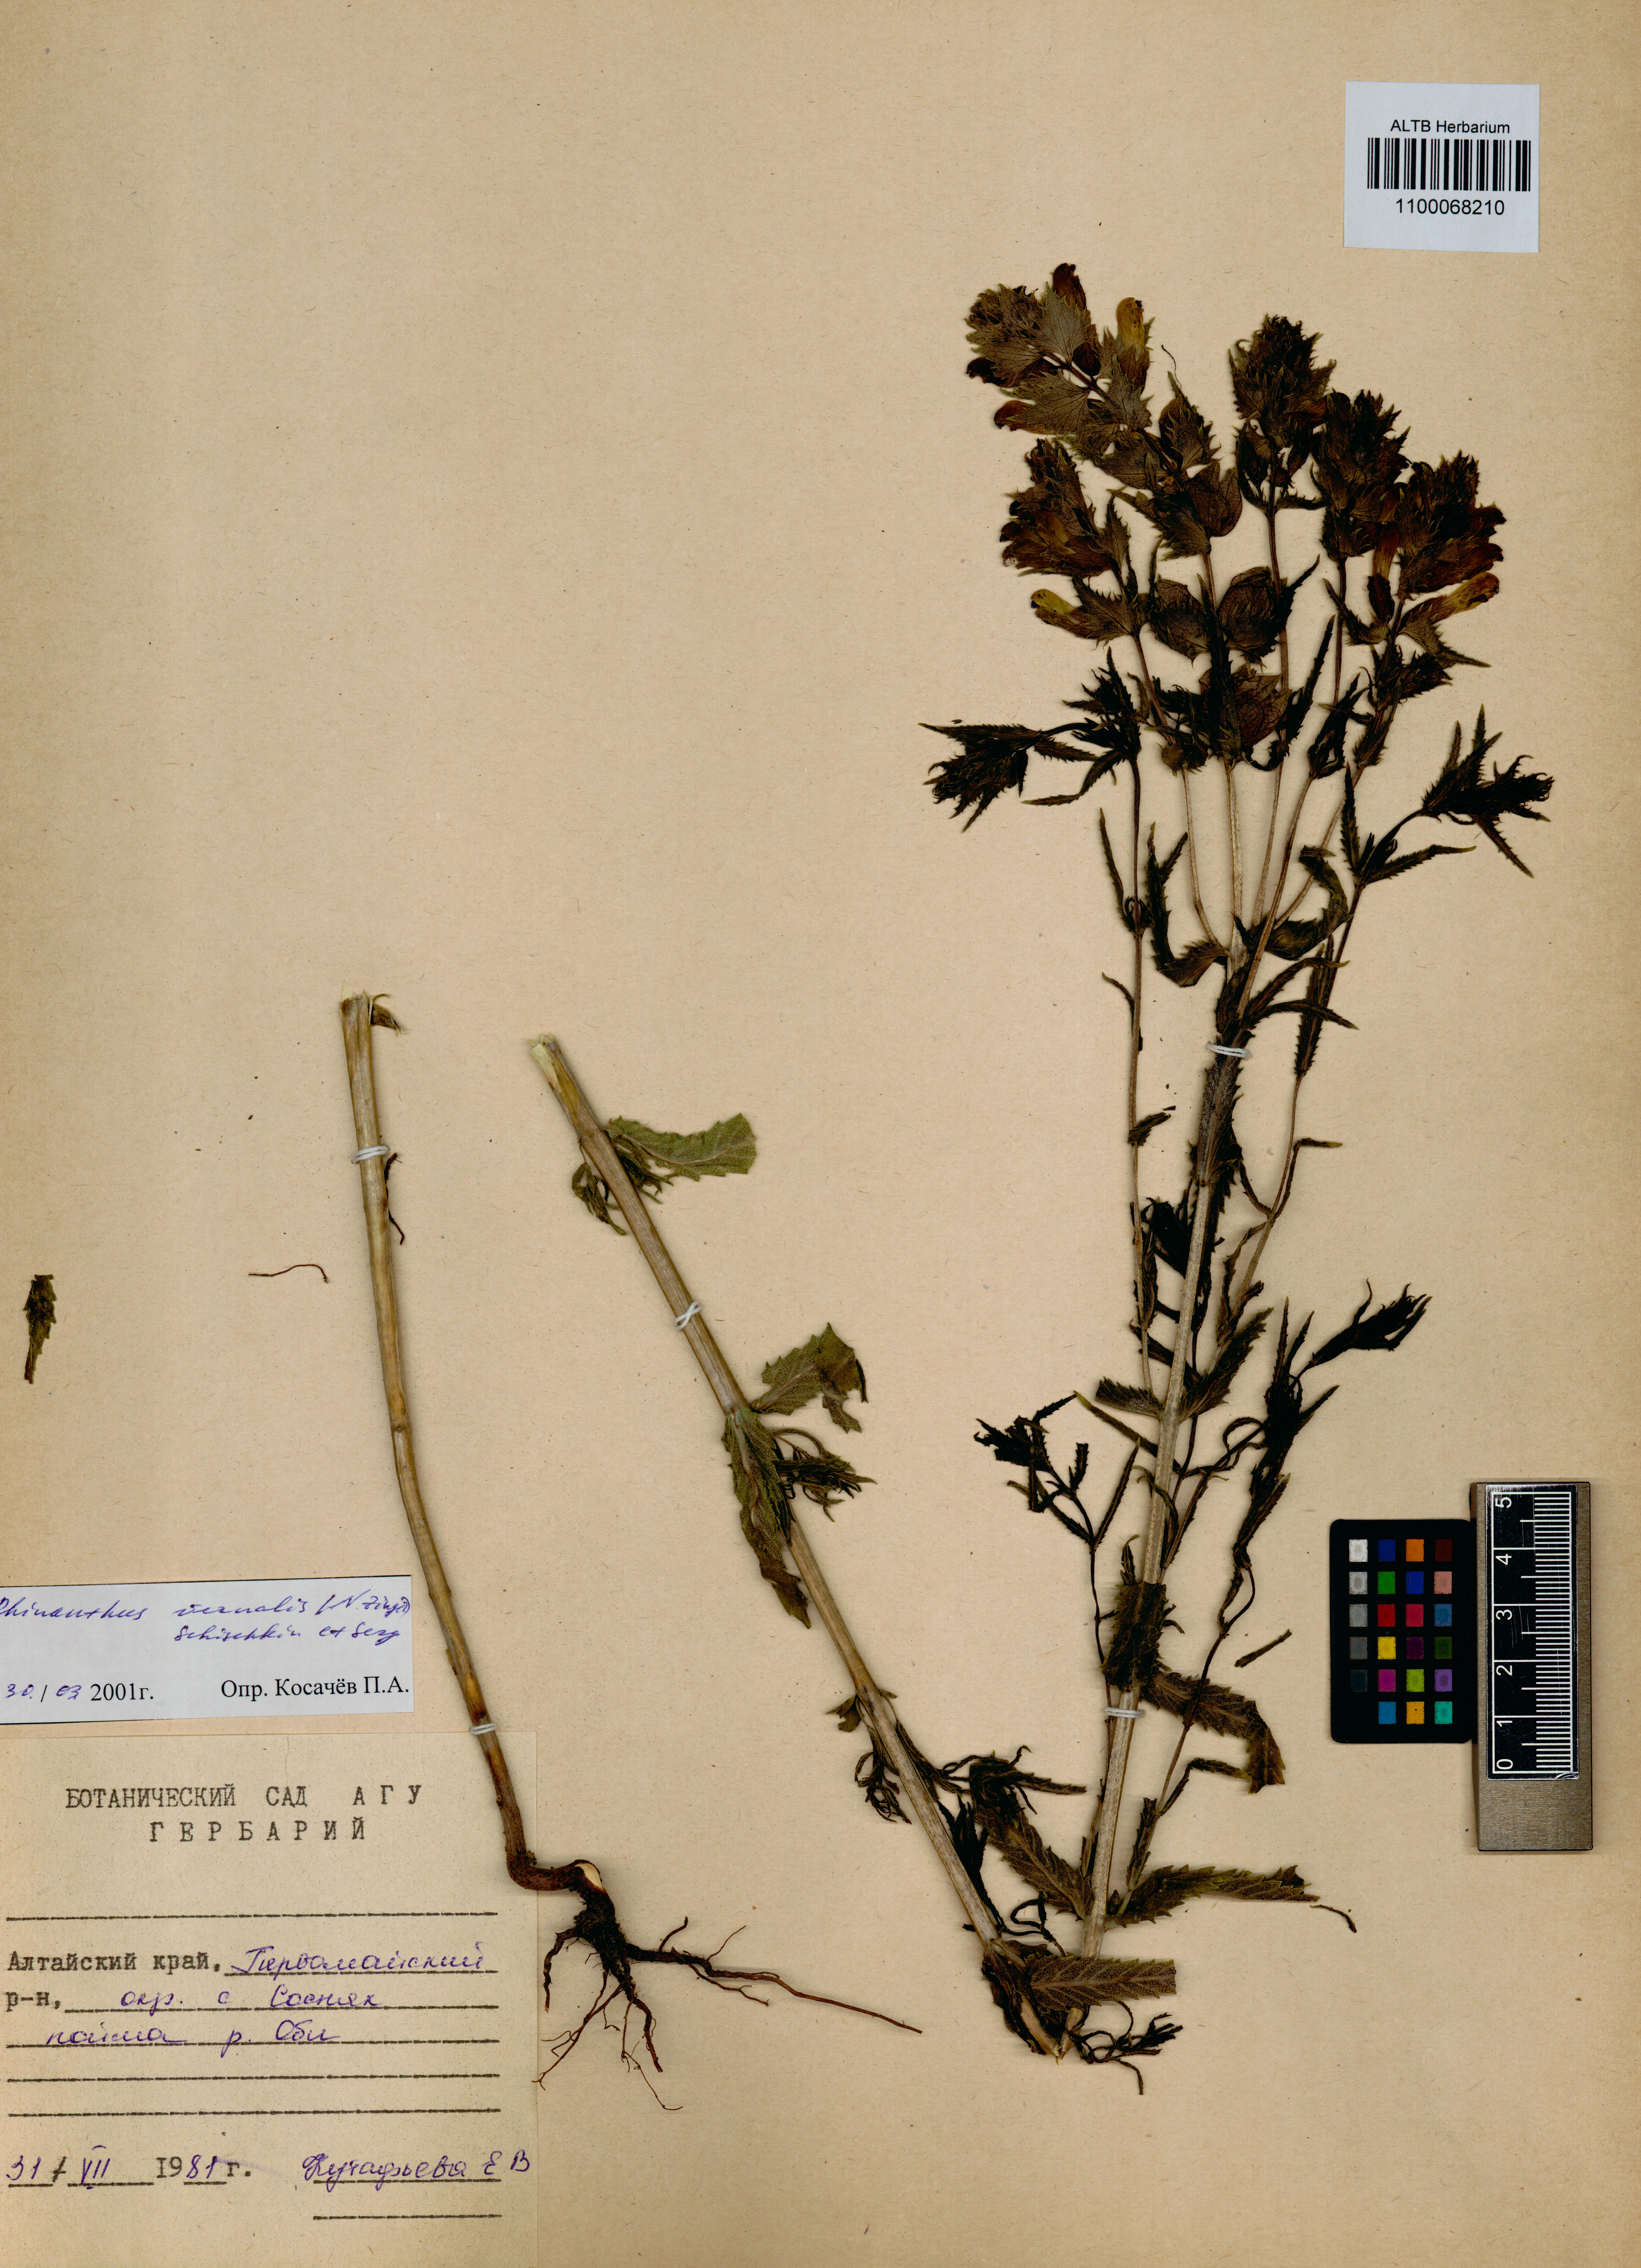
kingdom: Plantae
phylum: Tracheophyta
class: Magnoliopsida
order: Lamiales
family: Orobanchaceae
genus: Rhinanthus
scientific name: Rhinanthus serotinus
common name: Late-flowering yellow rattle
